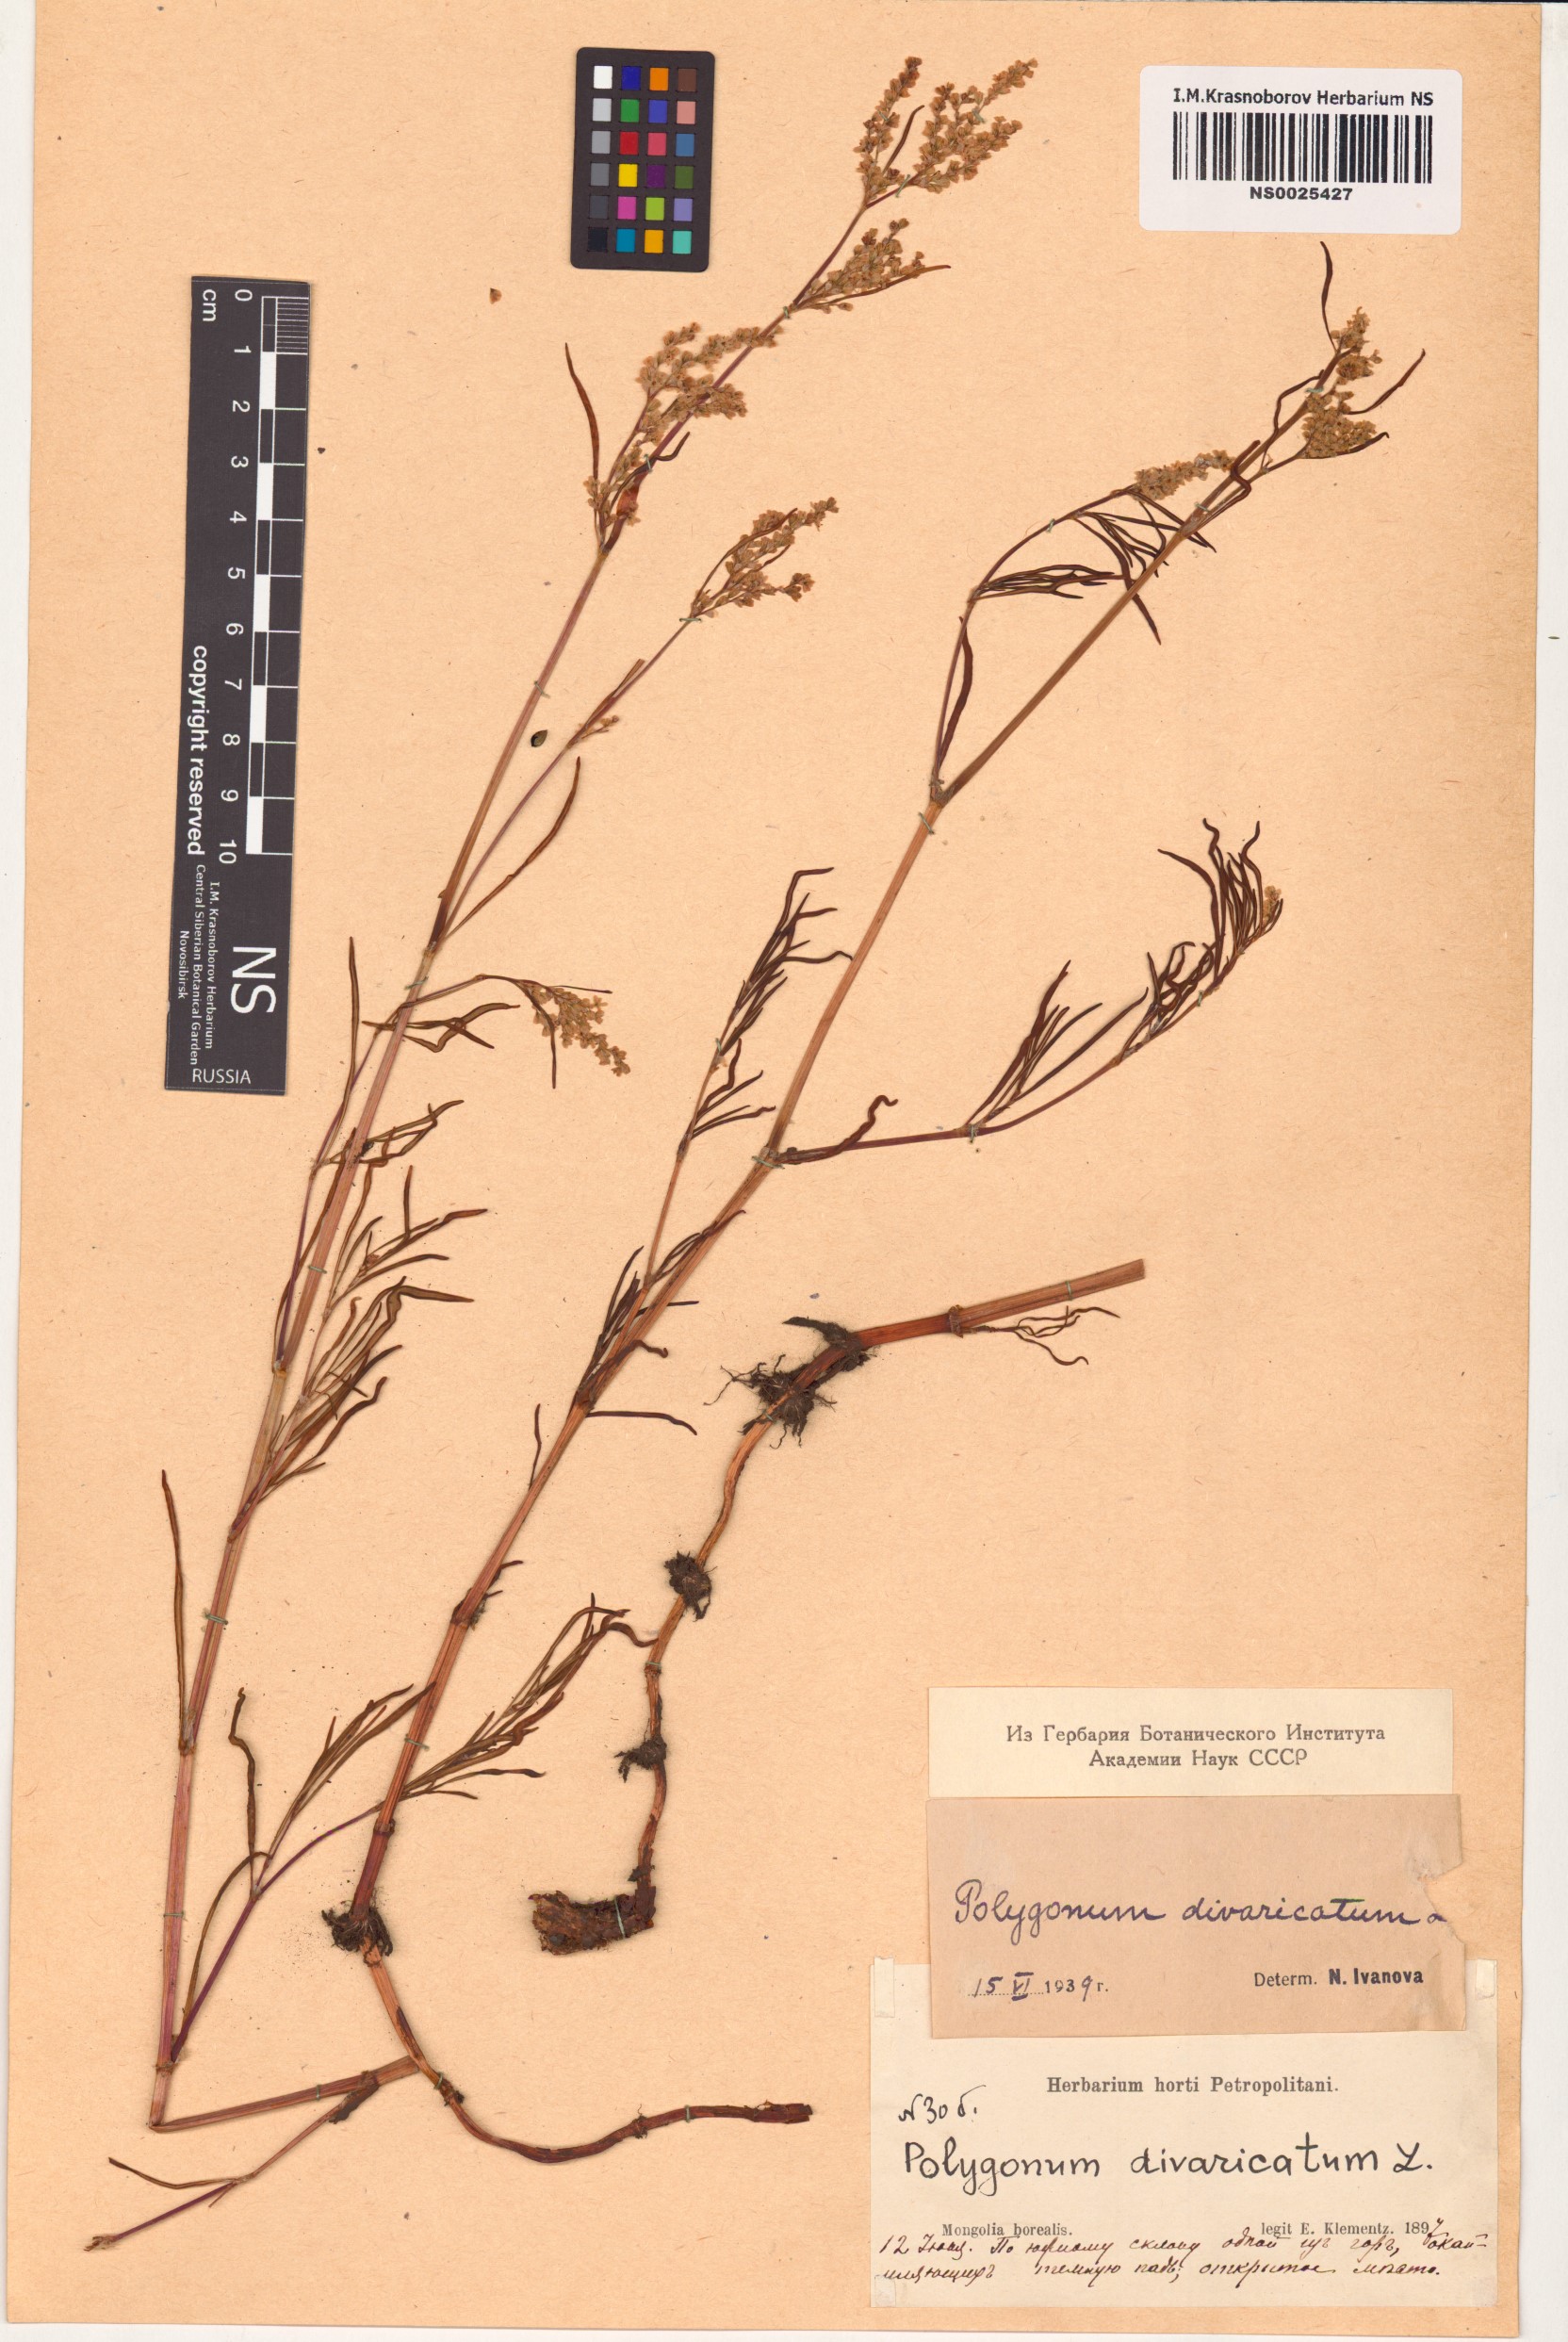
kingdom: Plantae
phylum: Tracheophyta
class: Magnoliopsida
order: Caryophyllales
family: Polygonaceae
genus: Koenigia
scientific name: Koenigia divaricata
